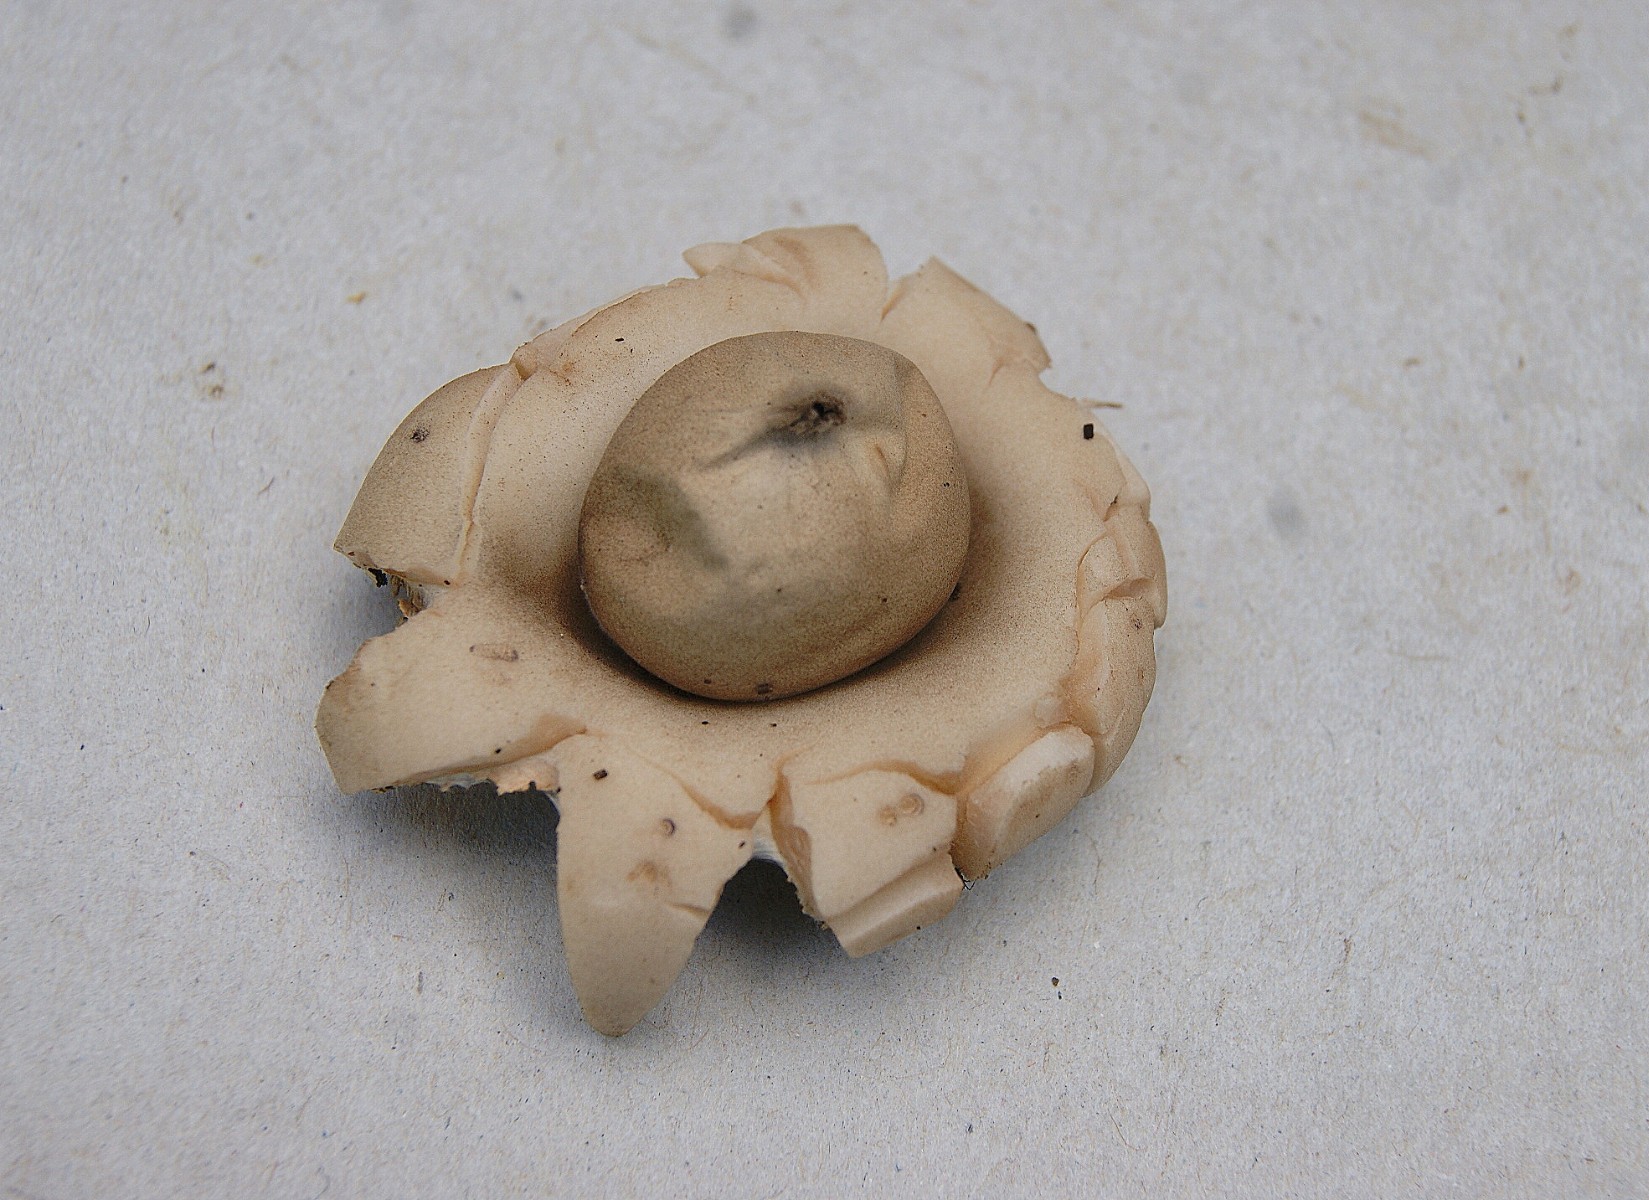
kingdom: Fungi
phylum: Basidiomycota
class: Agaricomycetes
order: Geastrales
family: Geastraceae
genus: Geastrum
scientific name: Geastrum fimbriatum
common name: frynset stjernebold
